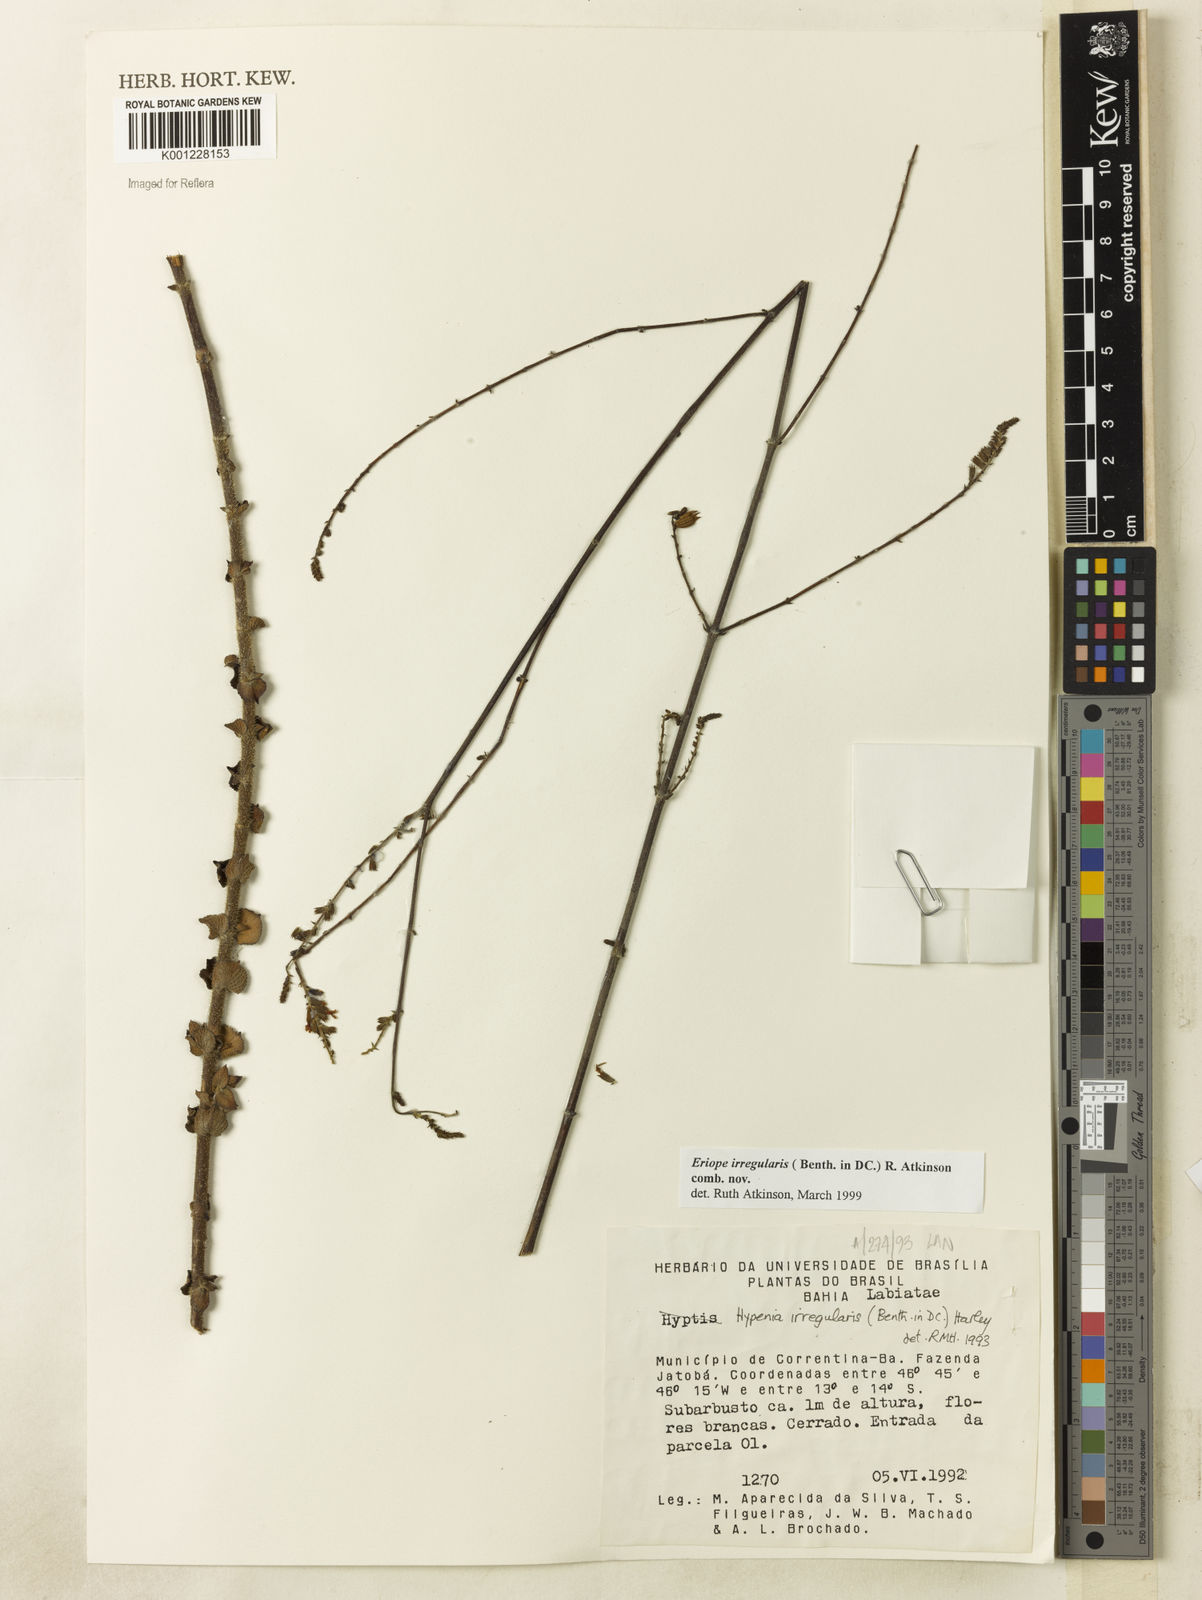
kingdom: Plantae
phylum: Tracheophyta
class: Magnoliopsida
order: Lamiales
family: Lamiaceae
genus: Hypenia
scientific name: Hypenia irregularis
